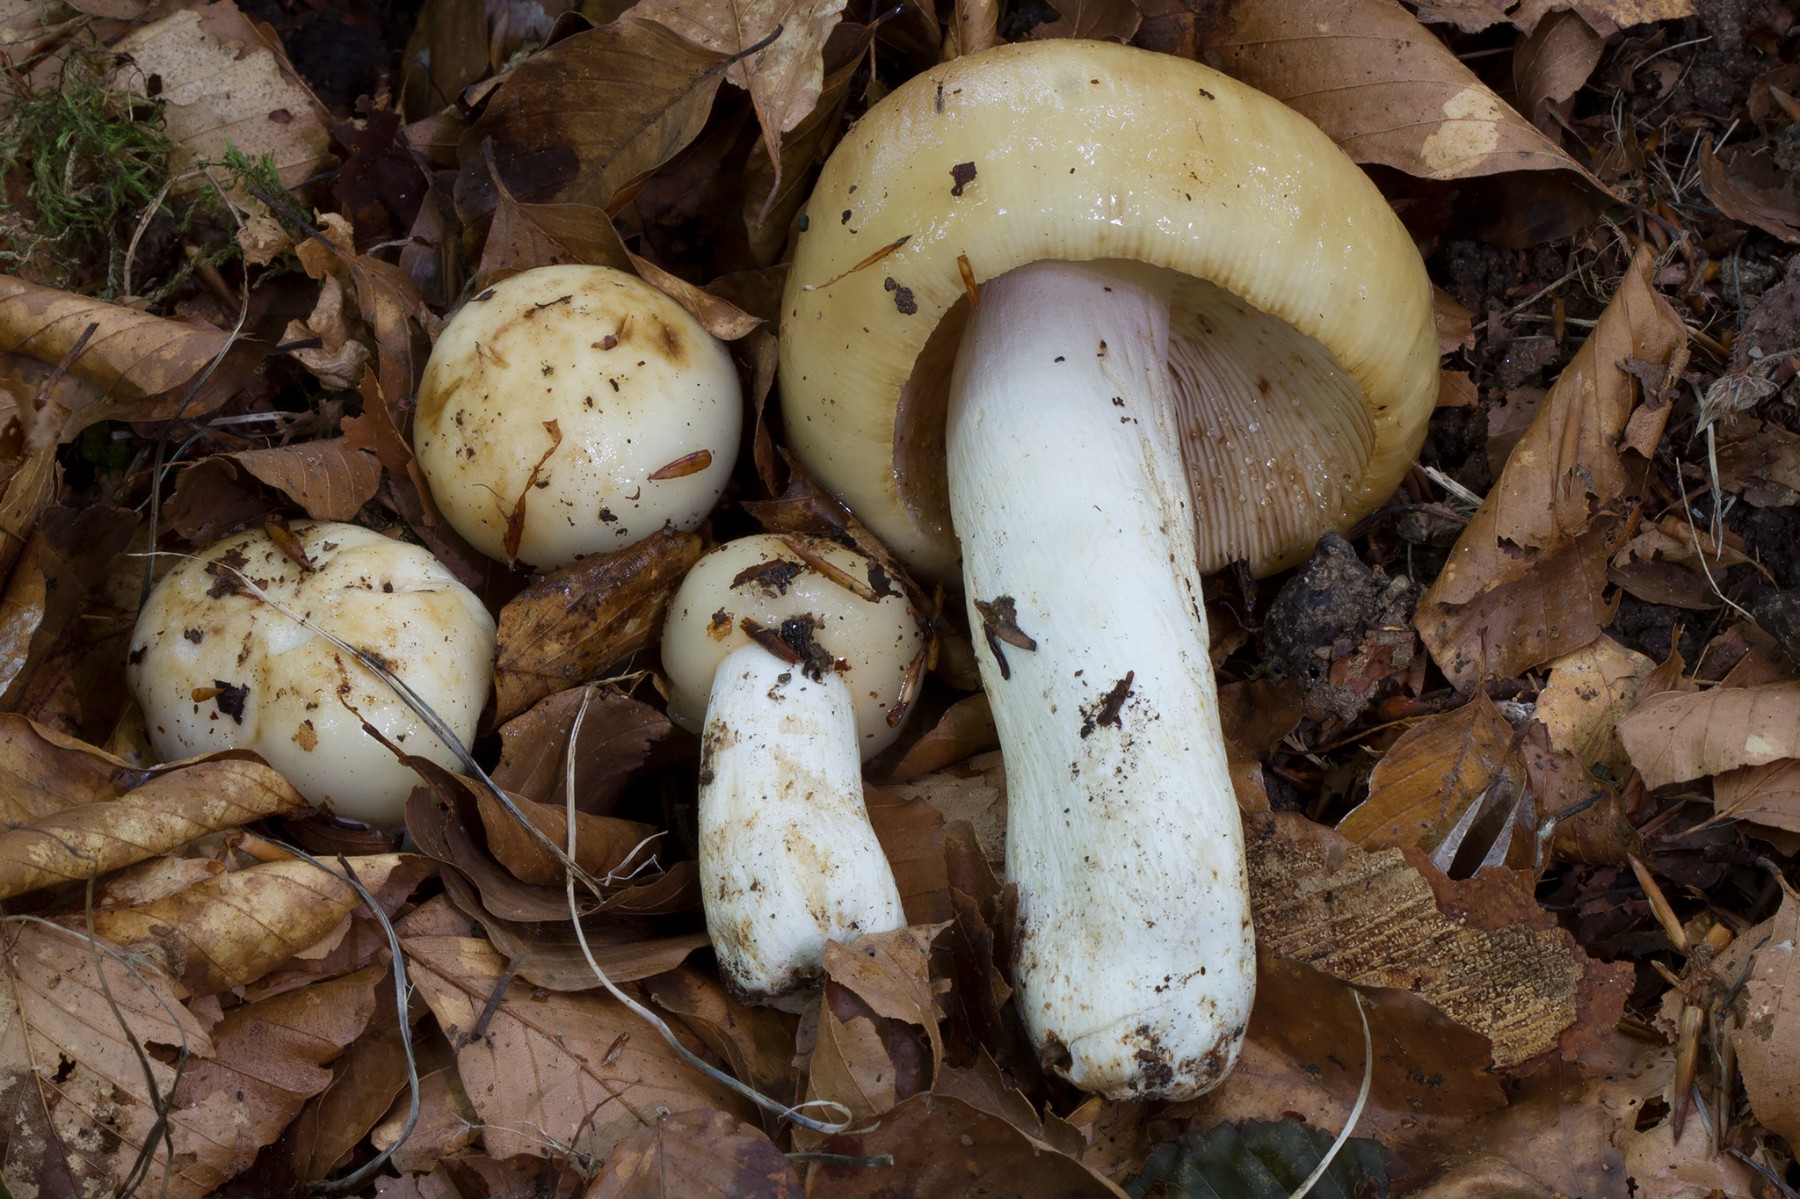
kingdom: Fungi
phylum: Basidiomycota
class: Agaricomycetes
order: Russulales
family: Russulaceae
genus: Russula
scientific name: Russula foetens
